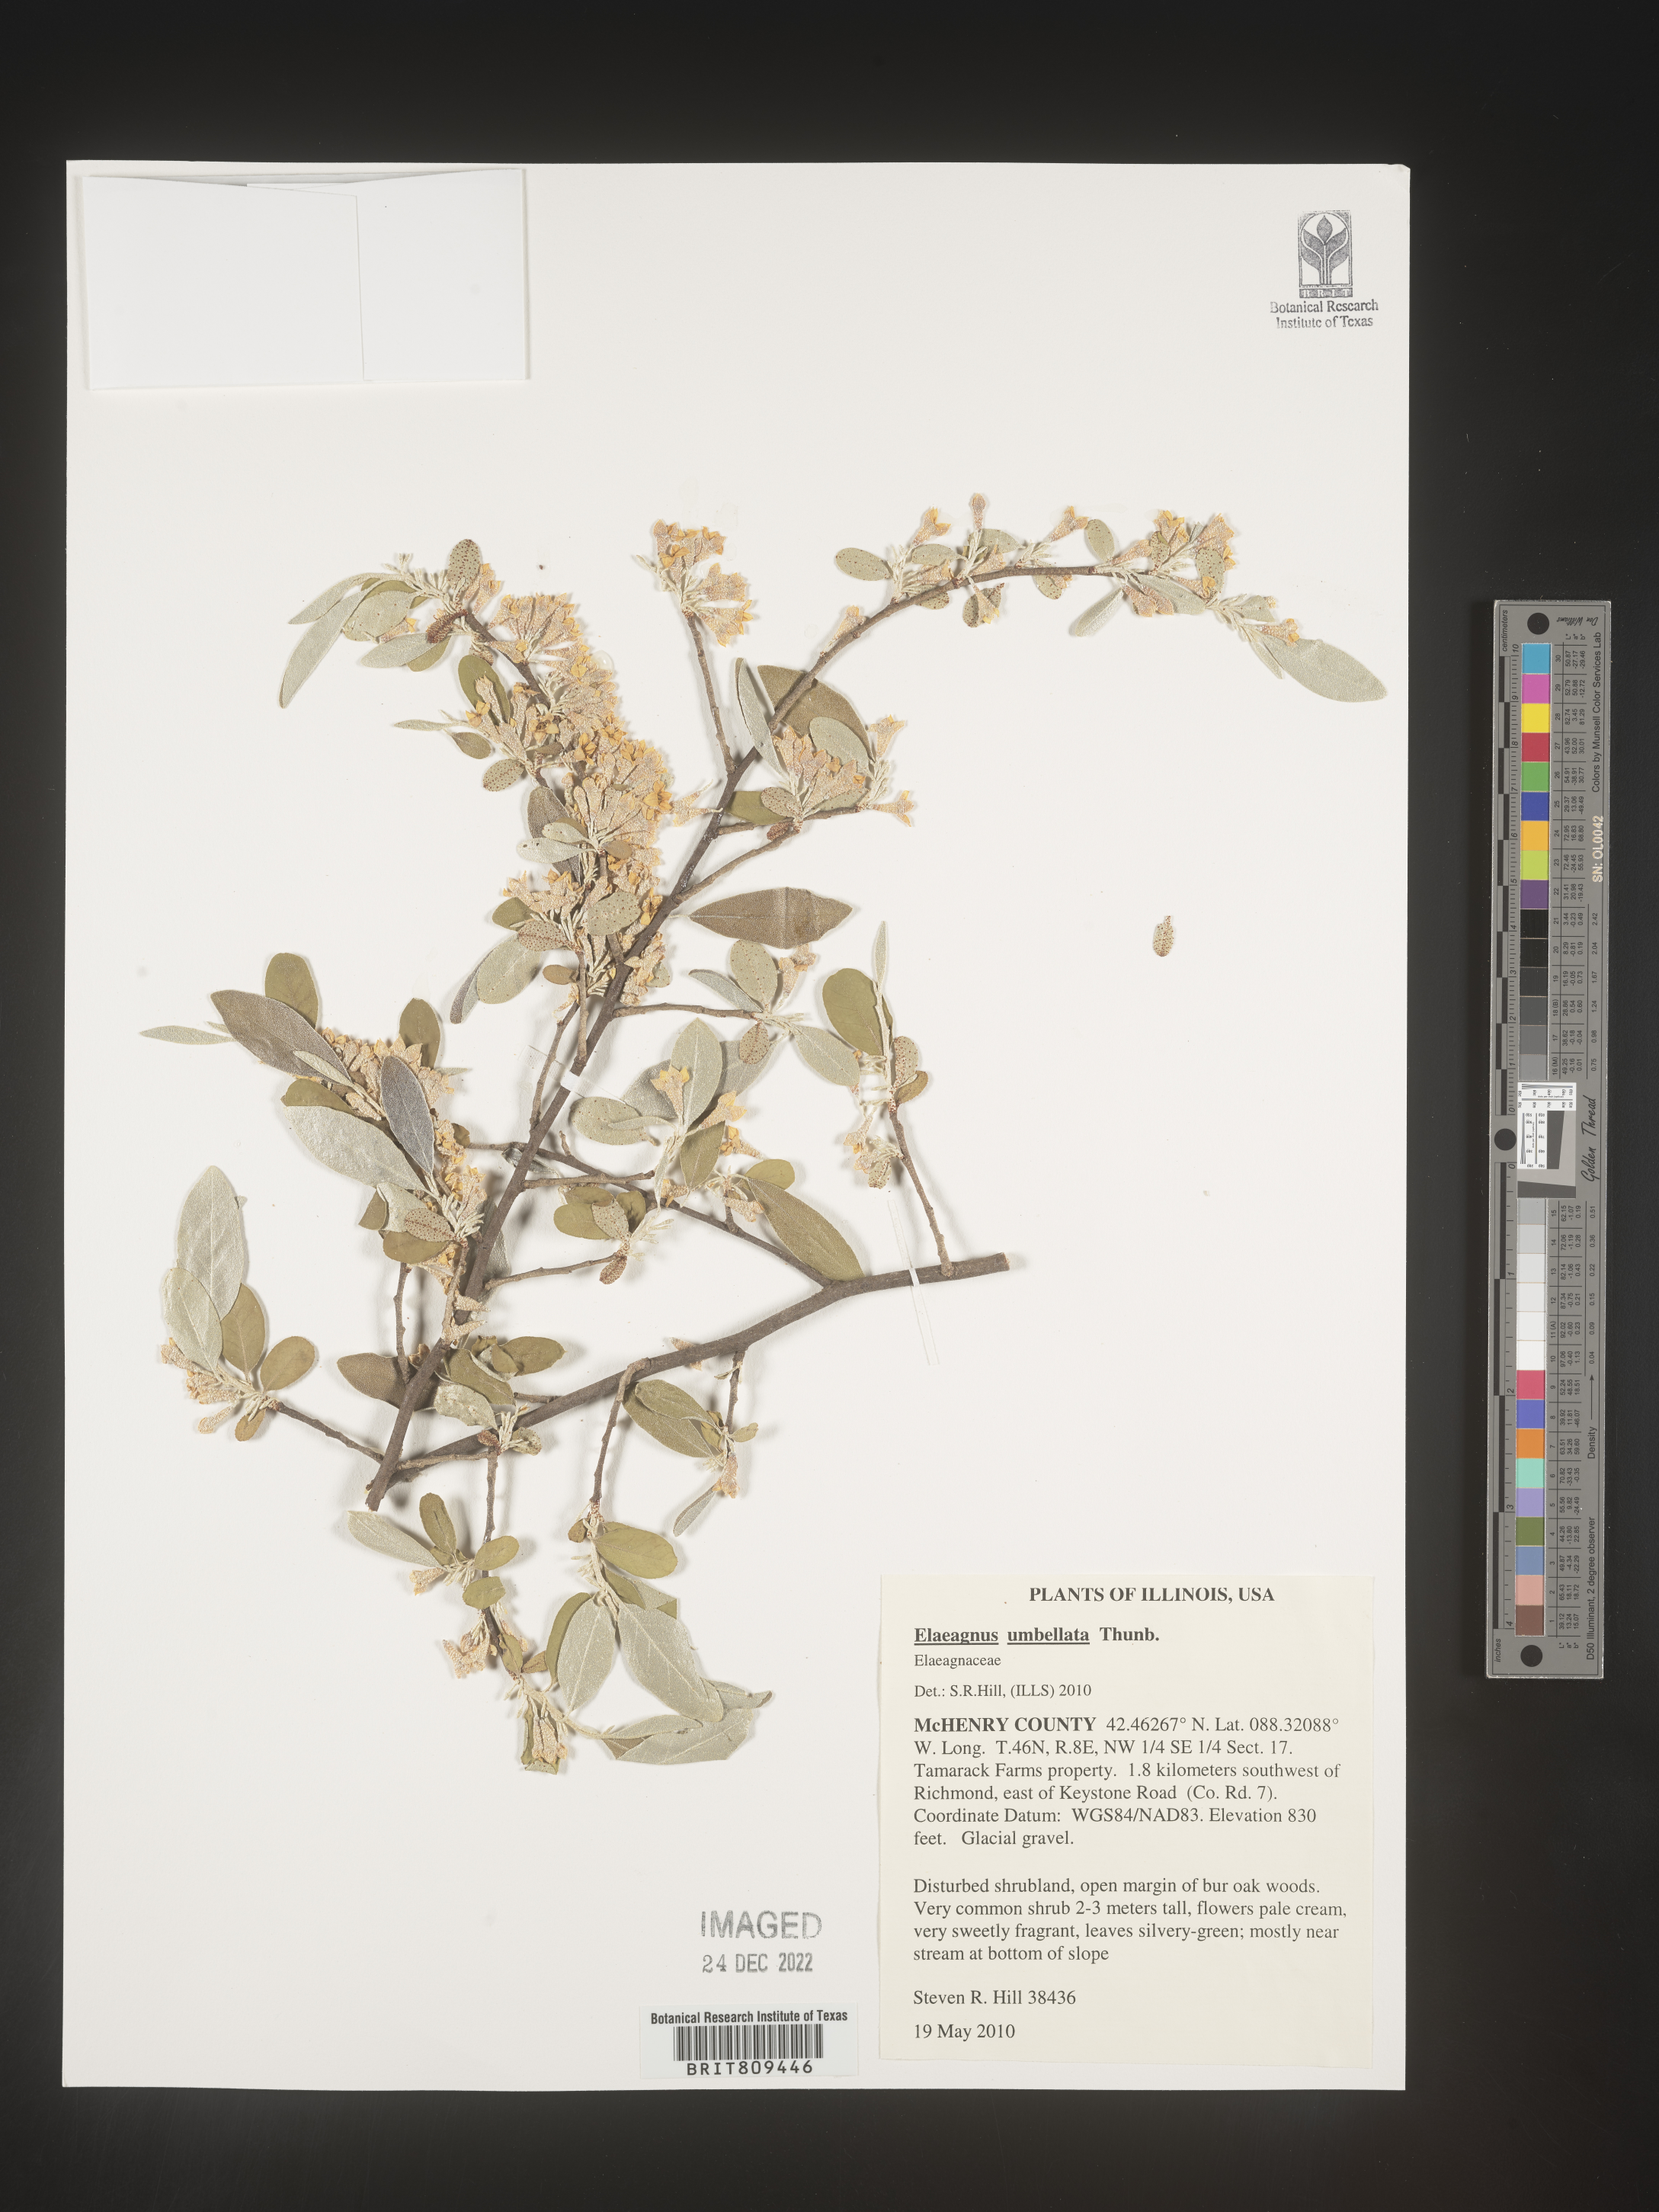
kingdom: Plantae
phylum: Tracheophyta
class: Magnoliopsida
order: Rosales
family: Elaeagnaceae
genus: Elaeagnus
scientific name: Elaeagnus
